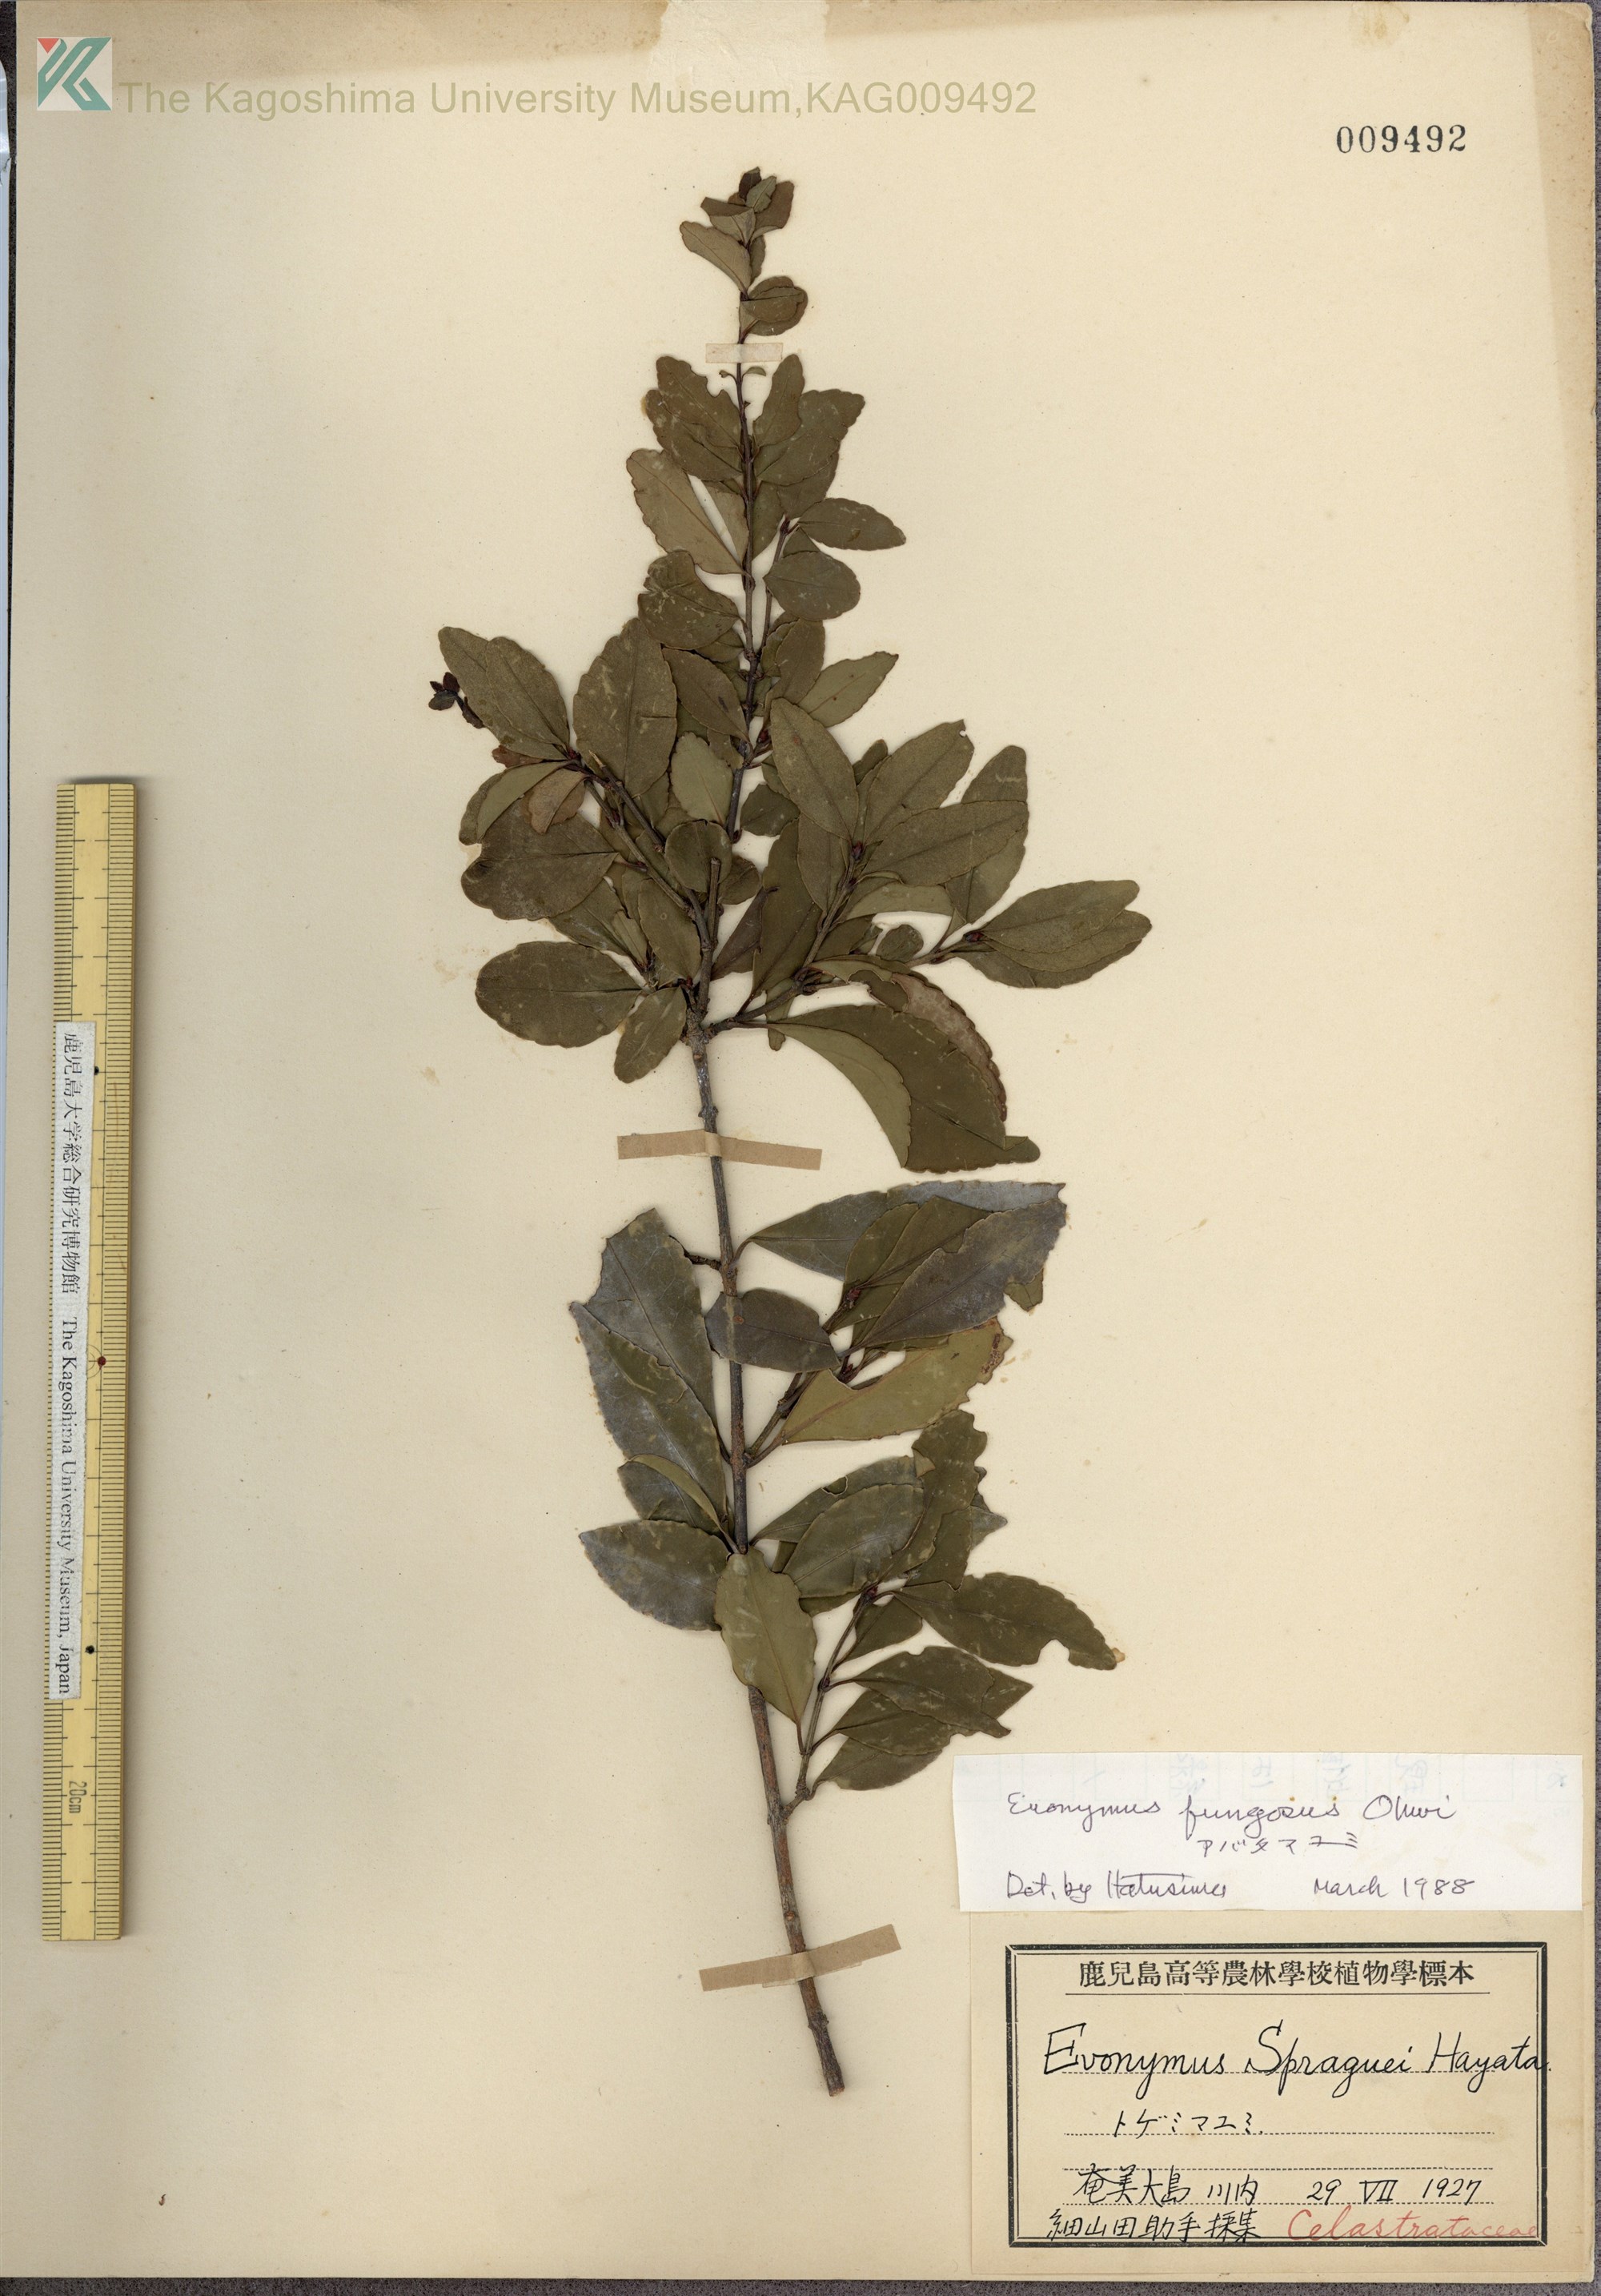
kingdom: Plantae
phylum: Tracheophyta
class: Magnoliopsida
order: Celastrales
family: Celastraceae
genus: Euonymus
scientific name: Euonymus echinatus
